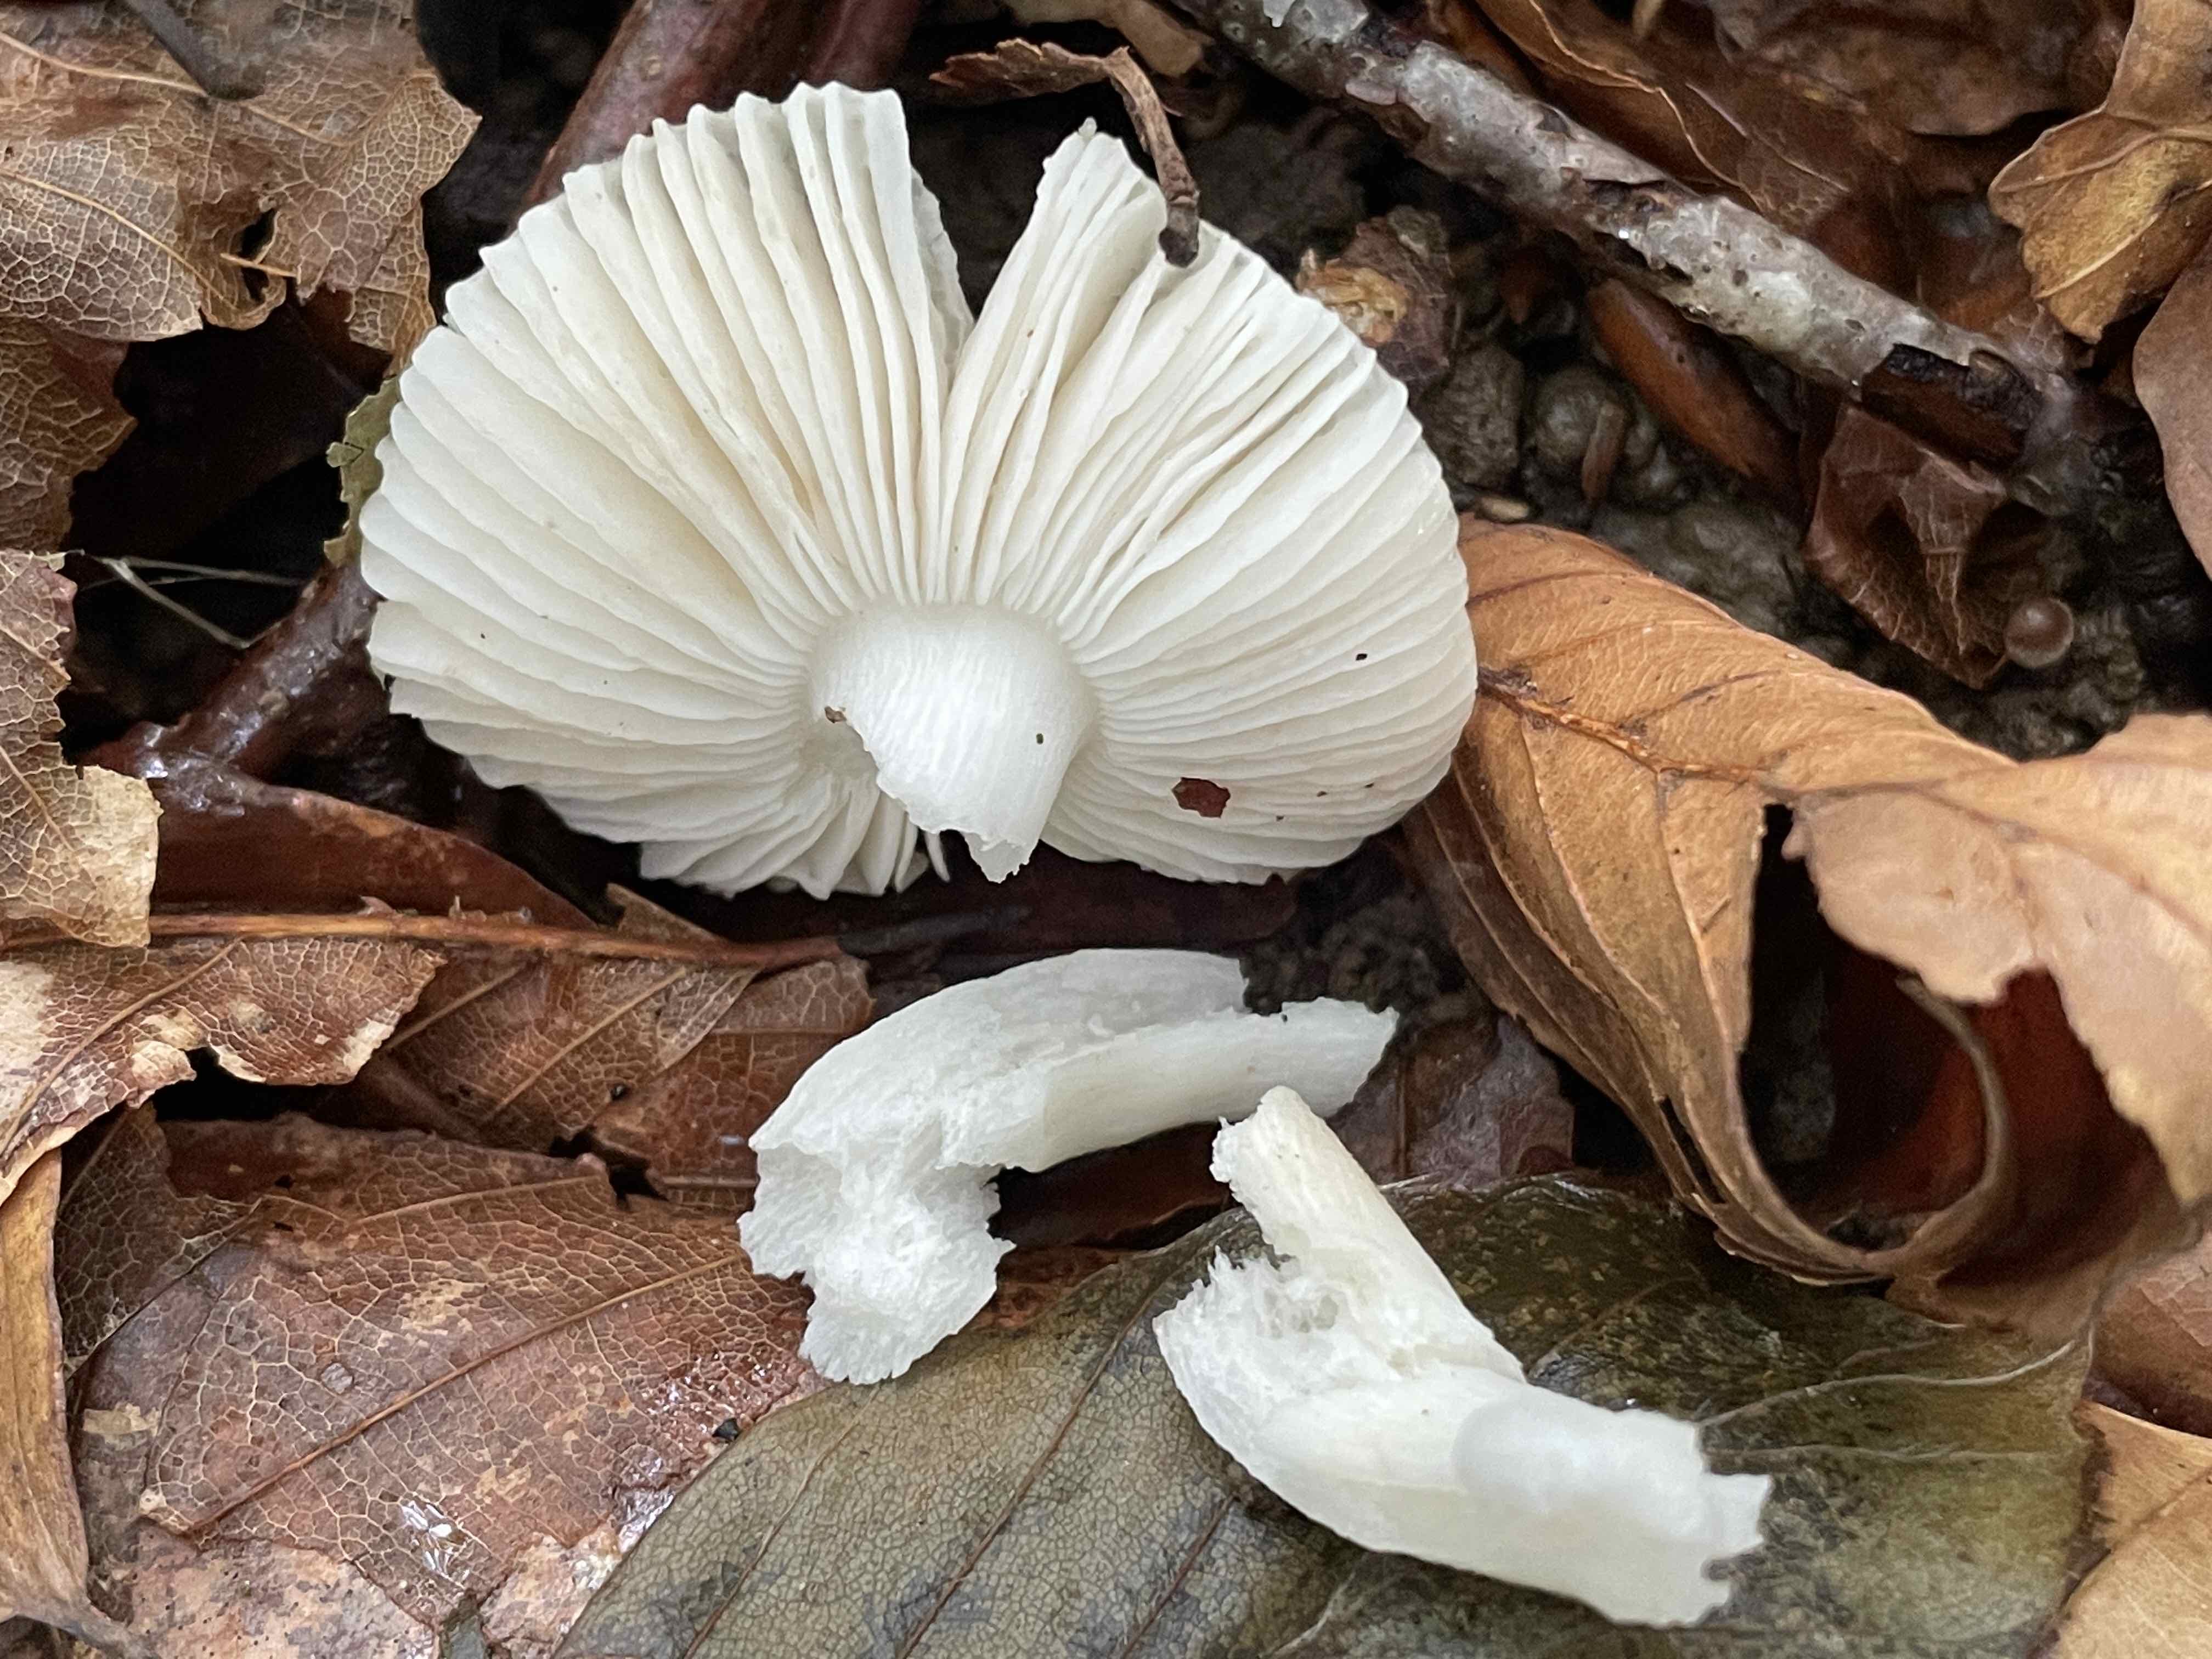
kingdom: Fungi
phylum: Basidiomycota
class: Agaricomycetes
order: Russulales
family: Russulaceae
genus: Russula
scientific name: Russula
